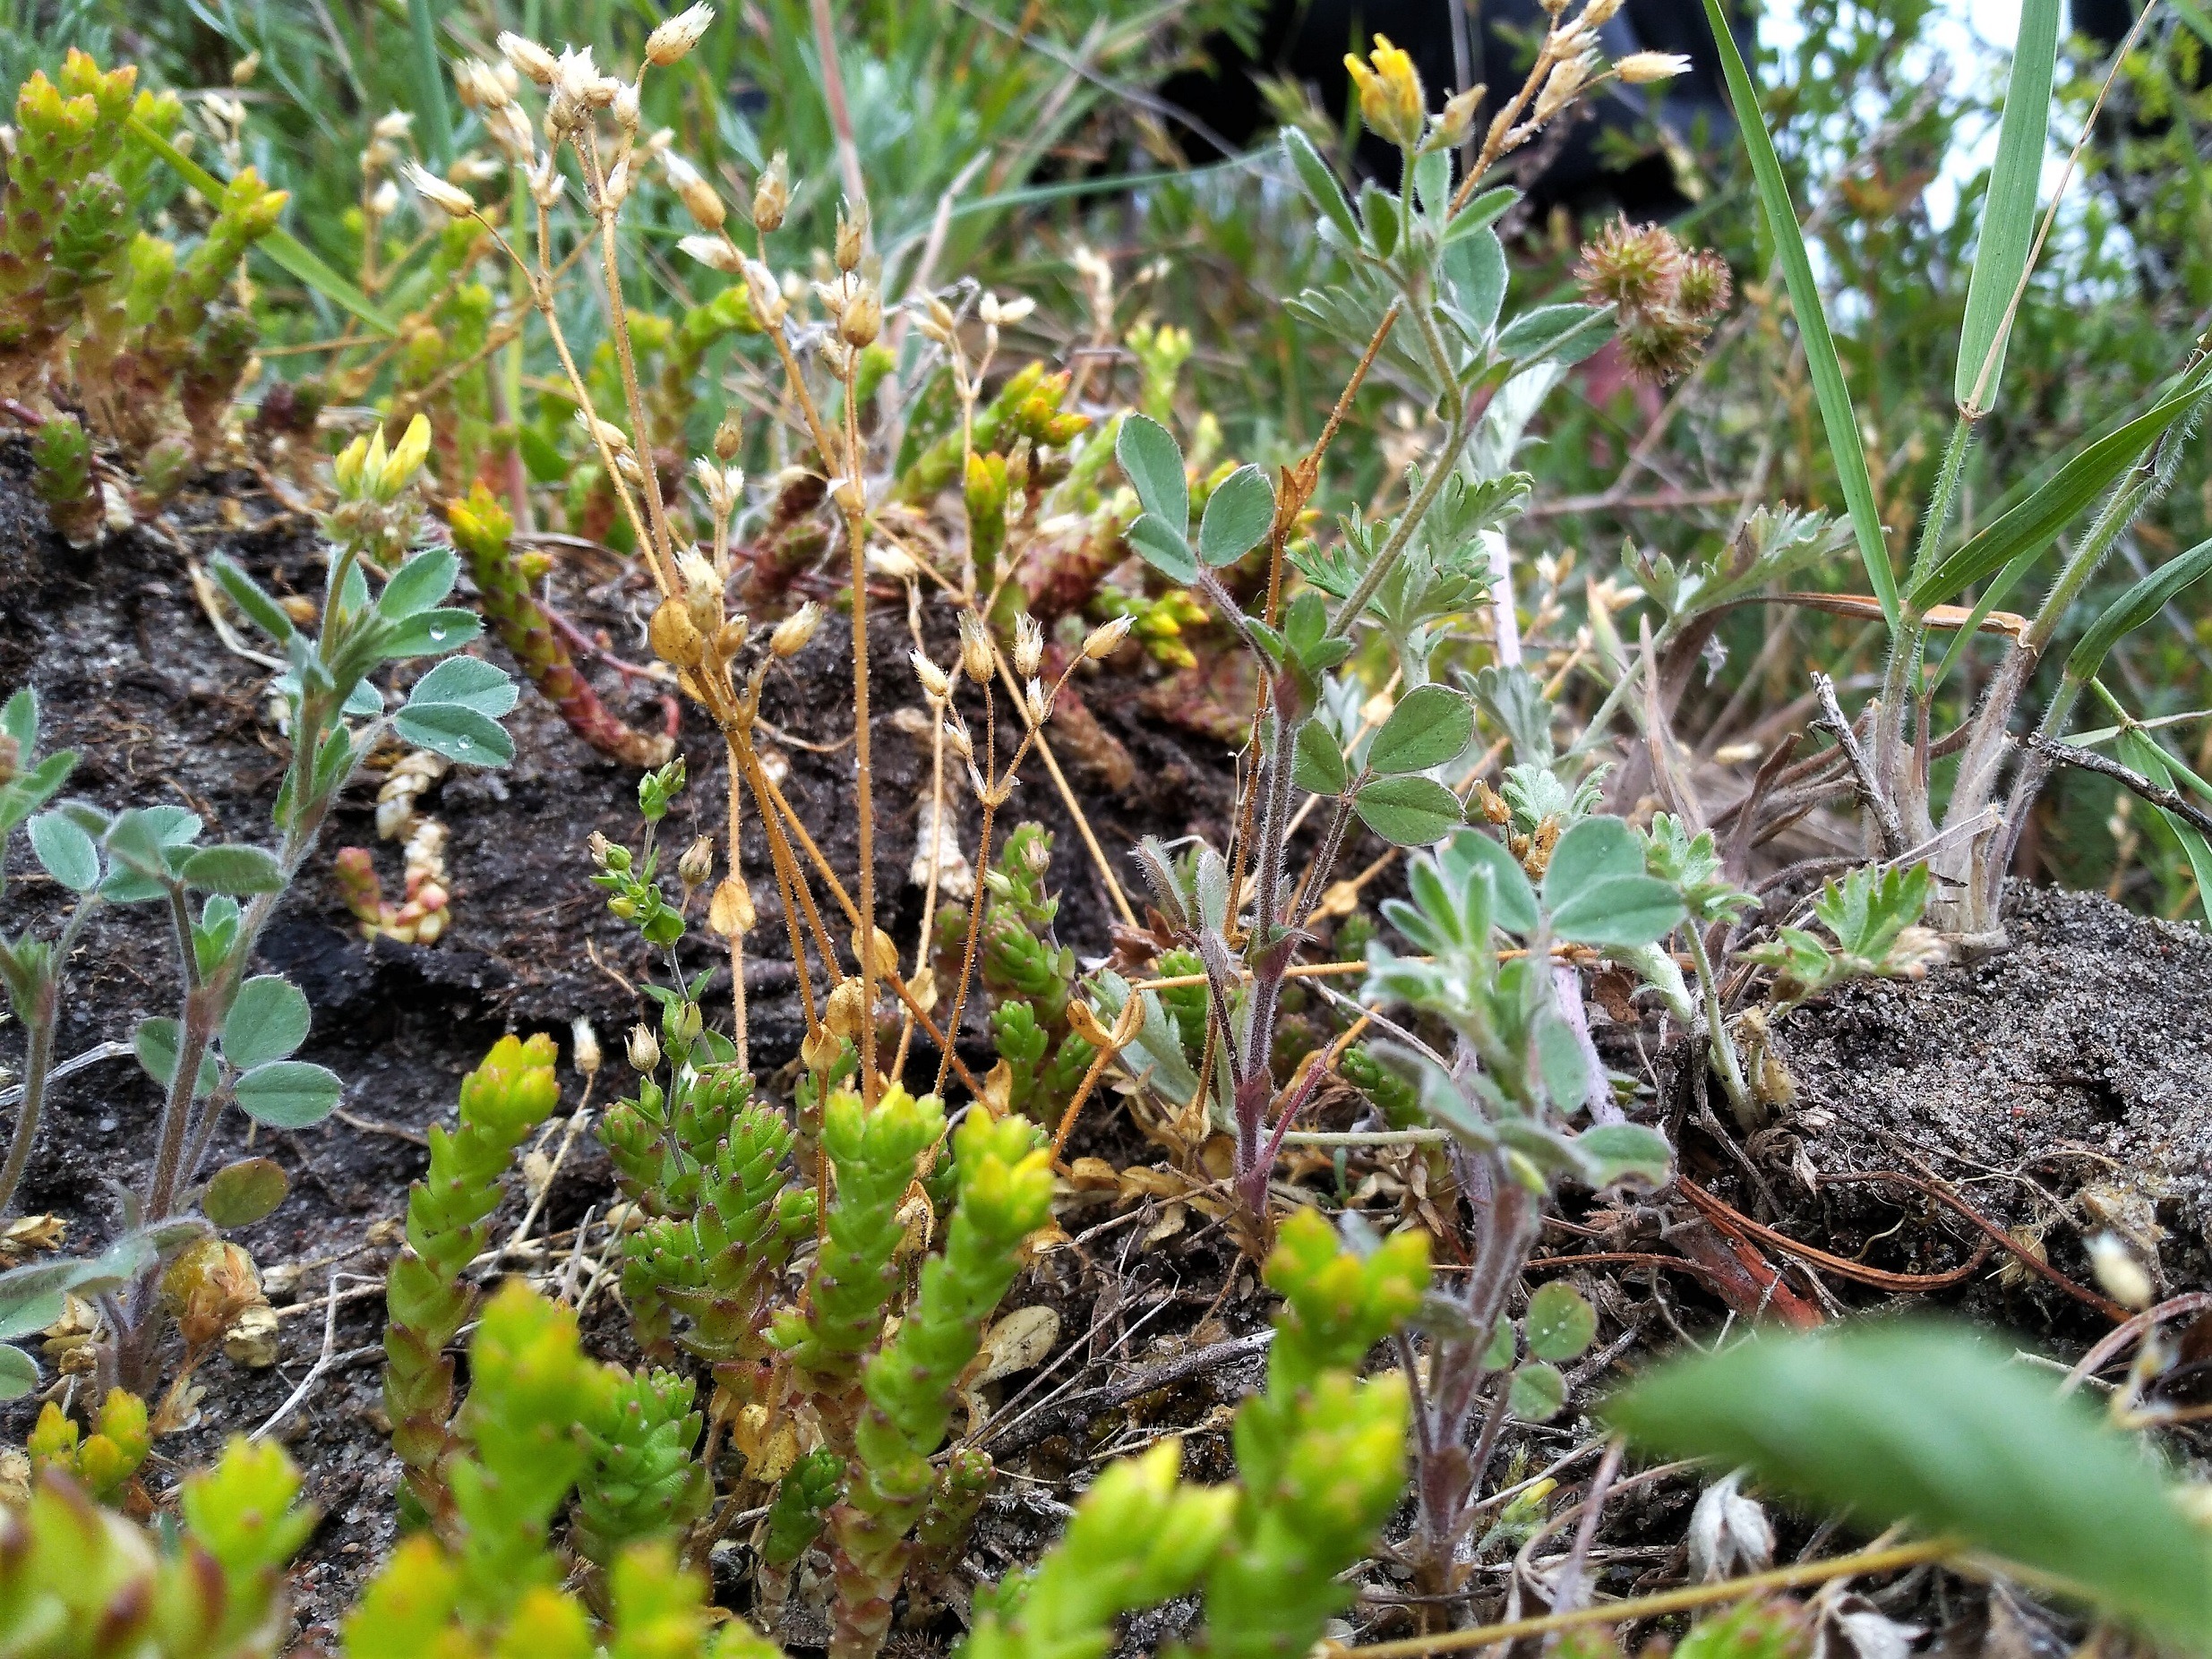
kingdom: Plantae
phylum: Tracheophyta
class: Magnoliopsida
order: Fabales
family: Fabaceae
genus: Medicago
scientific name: Medicago minima
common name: Liden sneglebælg
